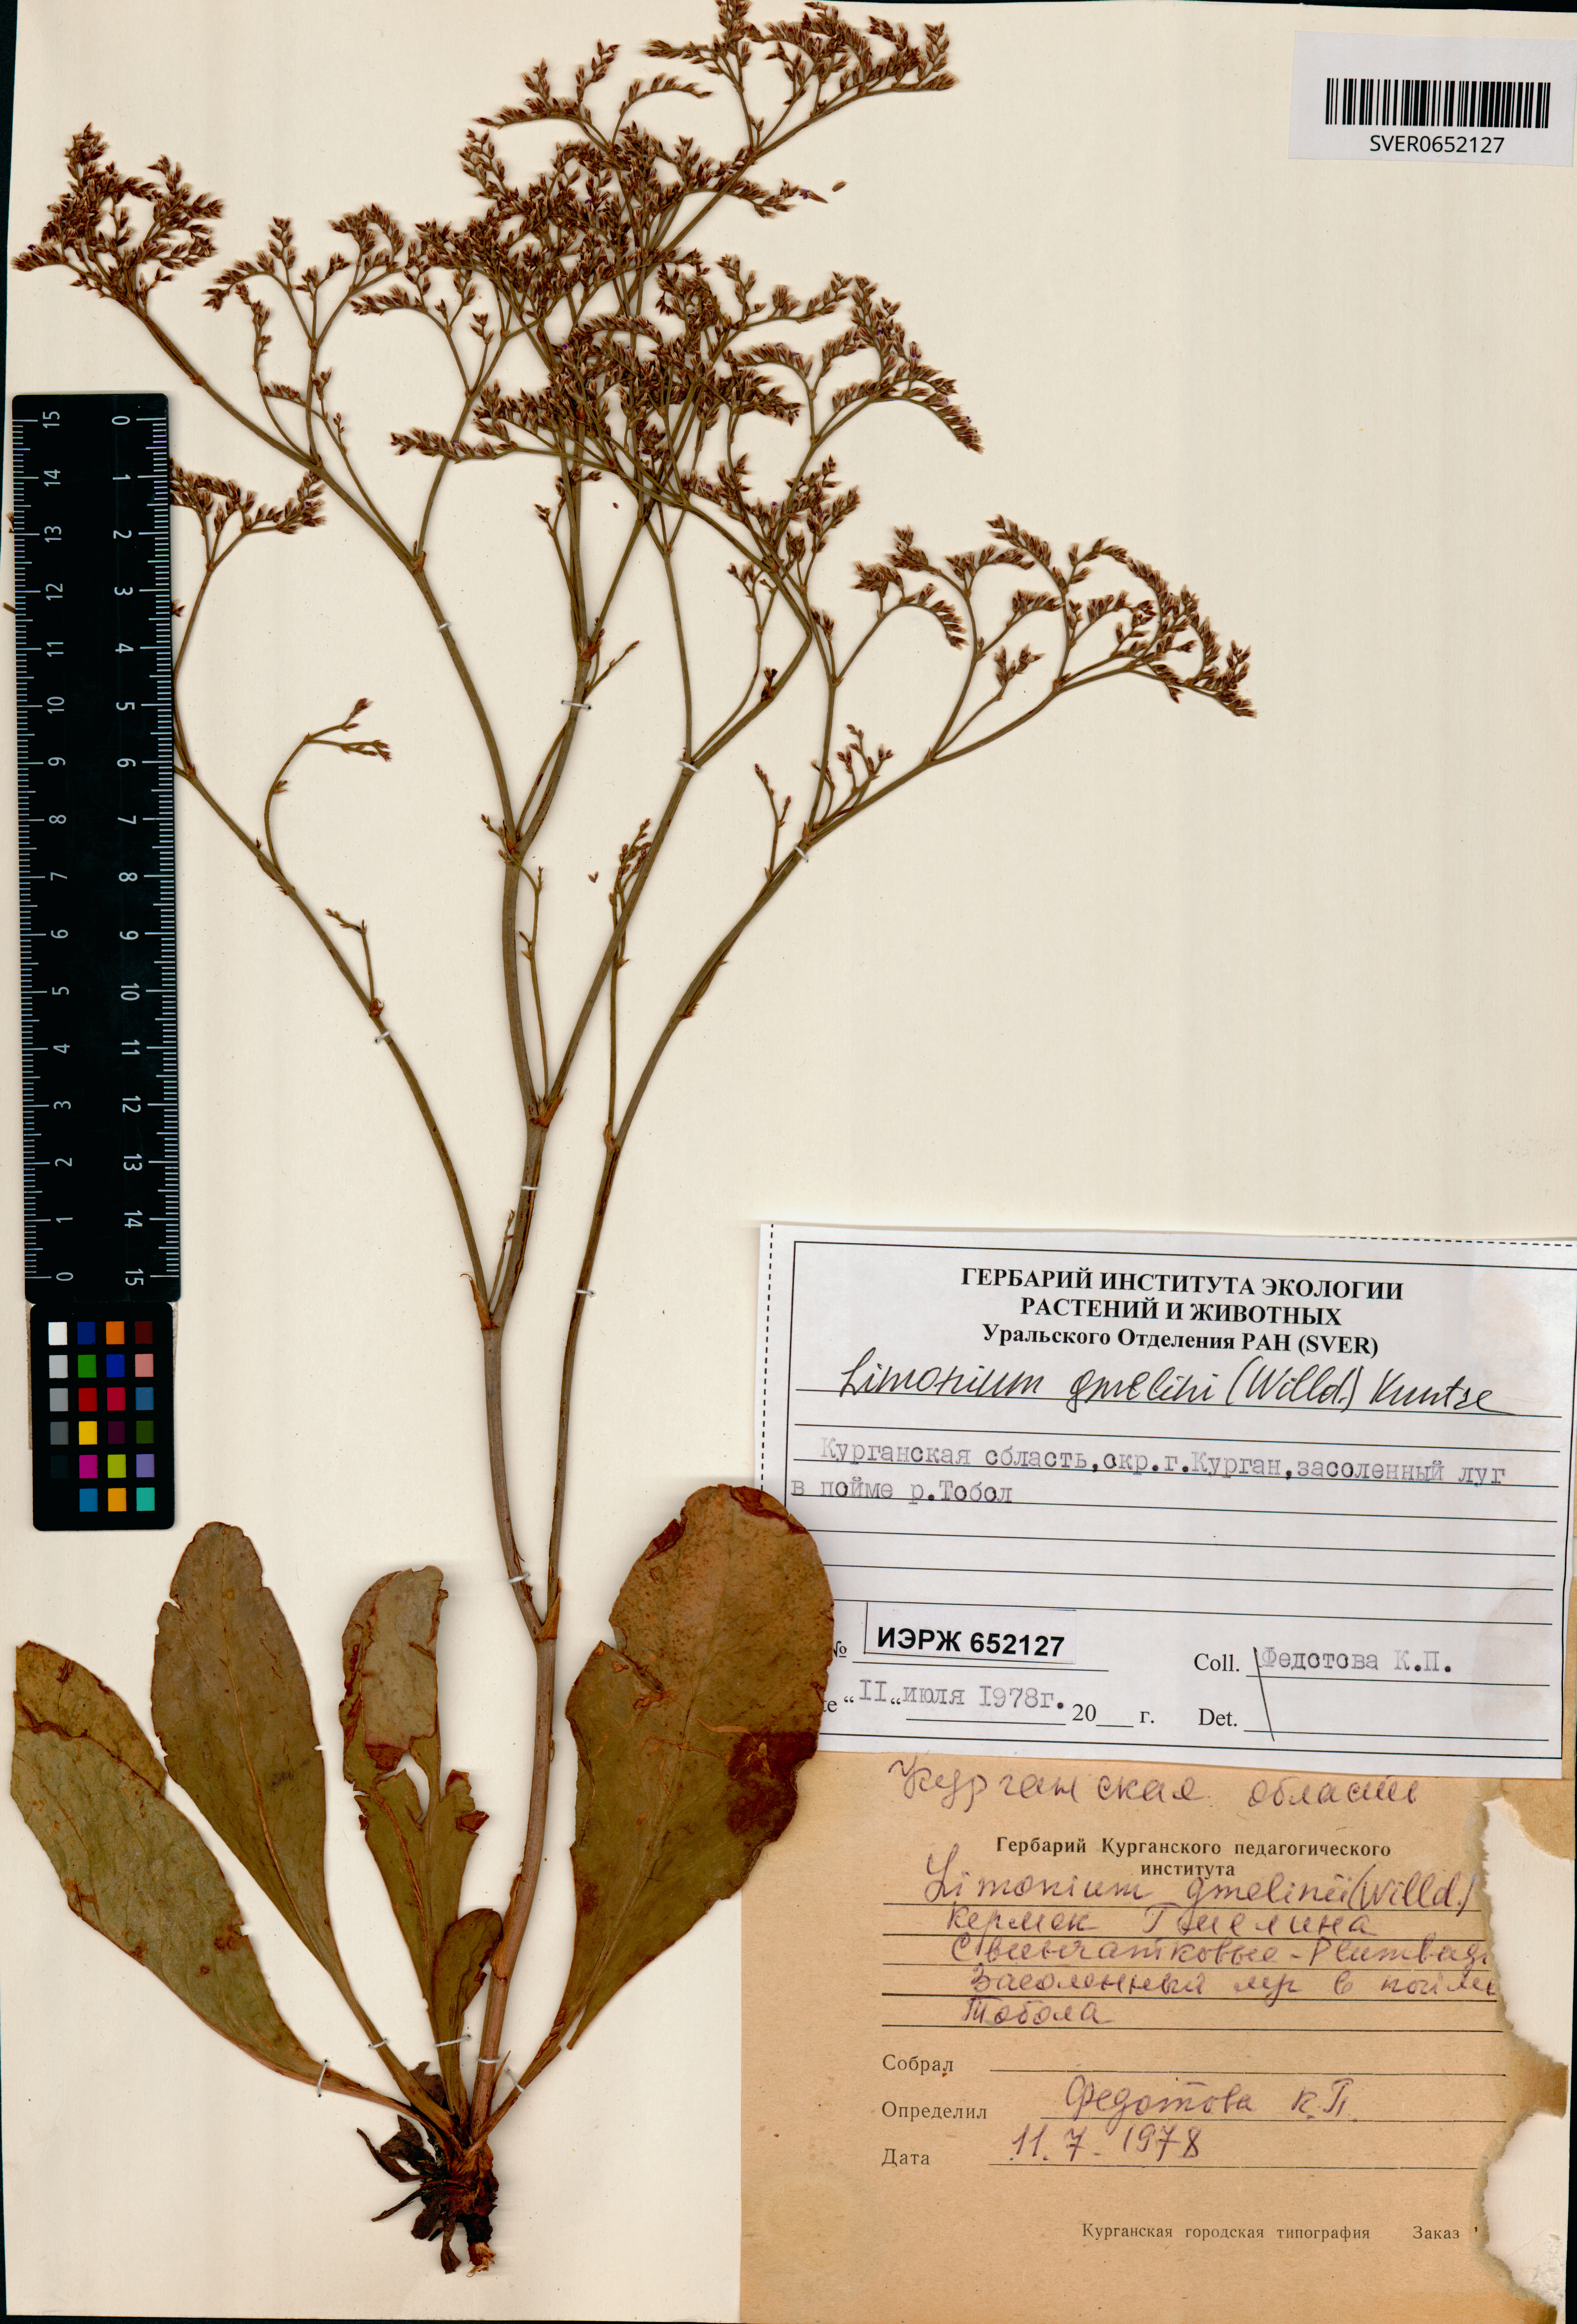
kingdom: Plantae
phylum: Tracheophyta
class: Magnoliopsida
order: Caryophyllales
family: Plumbaginaceae
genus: Limonium
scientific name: Limonium gmelini
